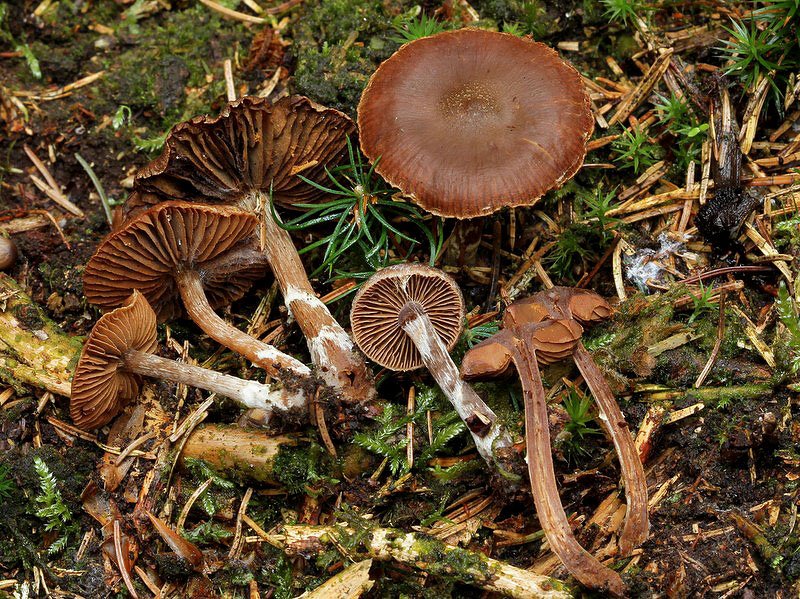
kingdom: Fungi
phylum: Basidiomycota
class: Agaricomycetes
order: Agaricales
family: Cortinariaceae
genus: Cortinarius
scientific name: Cortinarius
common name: pelargonie-slørhat
